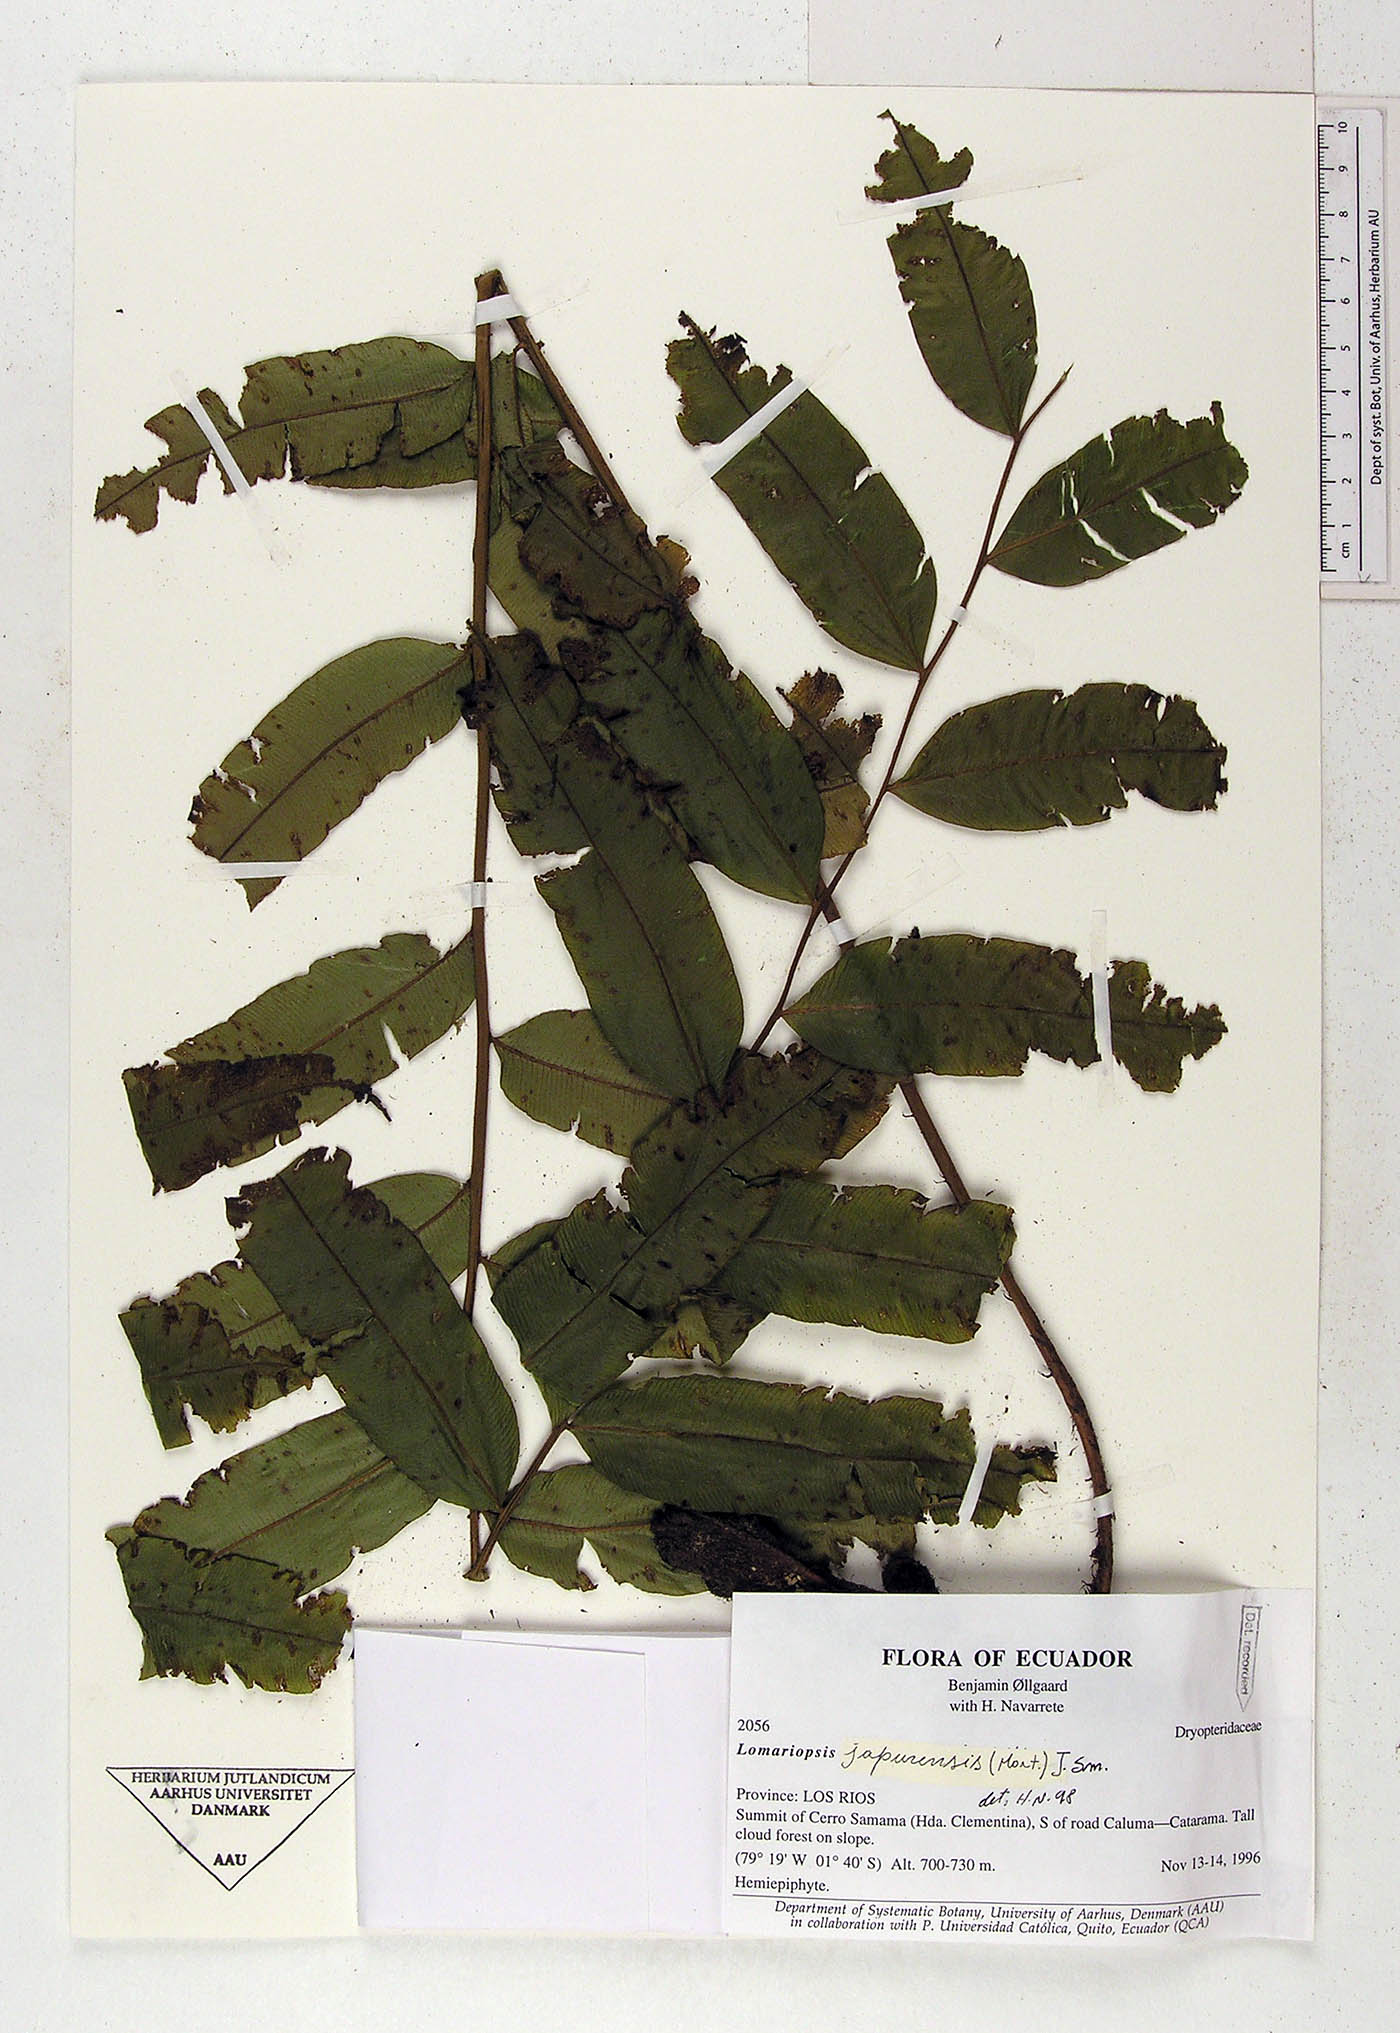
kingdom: Plantae
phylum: Tracheophyta
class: Polypodiopsida
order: Polypodiales
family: Lomariopsidaceae
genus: Lomariopsis
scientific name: Lomariopsis japurensis
